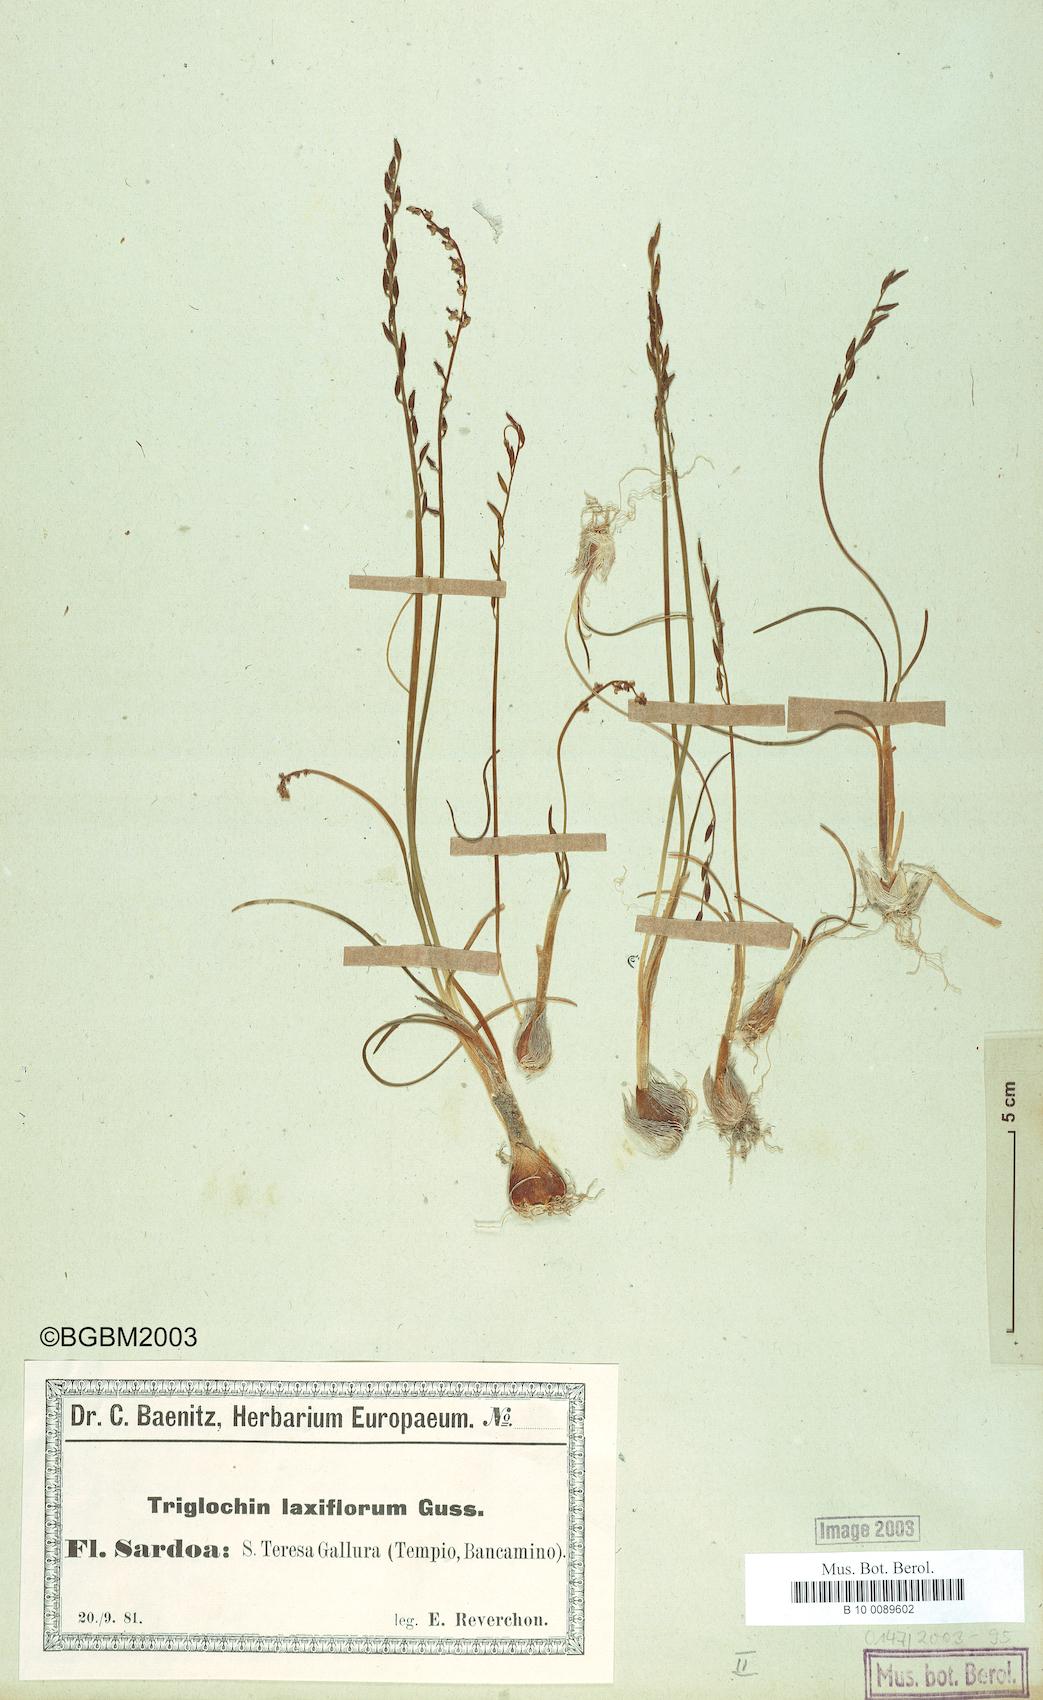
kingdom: Plantae
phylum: Tracheophyta
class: Liliopsida
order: Alismatales
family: Juncaginaceae
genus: Triglochin
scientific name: Triglochin laxiflora
